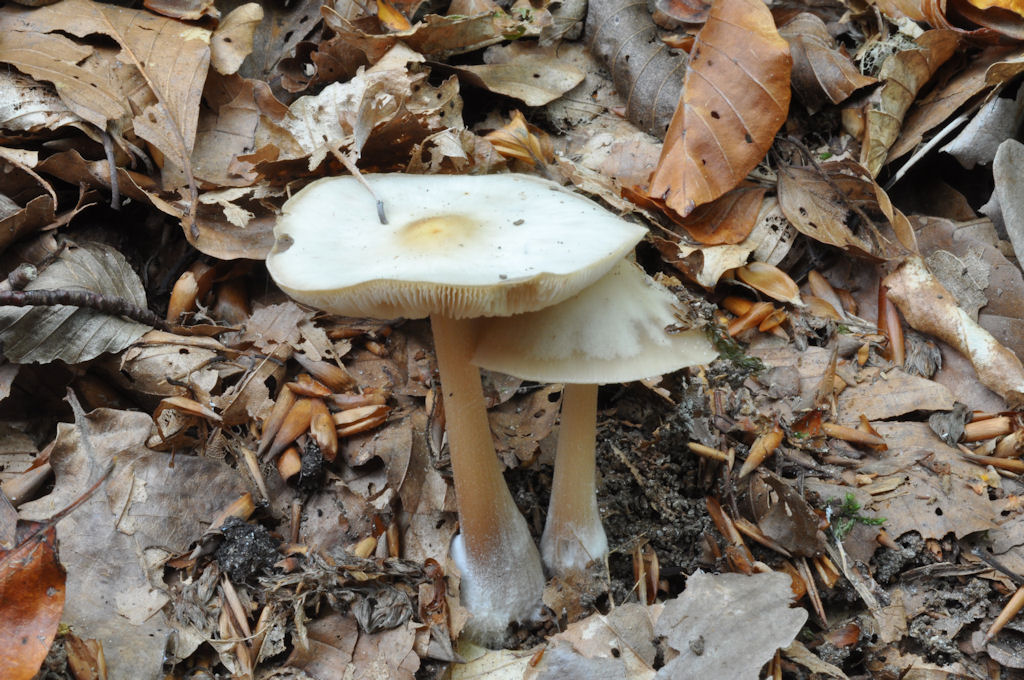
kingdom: Fungi
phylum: Basidiomycota
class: Agaricomycetes
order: Agaricales
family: Omphalotaceae
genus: Rhodocollybia
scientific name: Rhodocollybia asema
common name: horngrå fladhat
